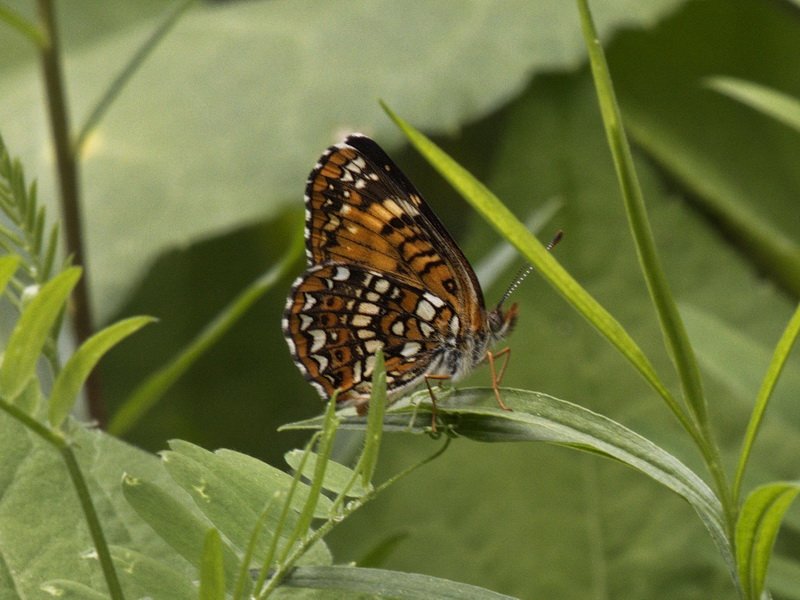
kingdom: Animalia
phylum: Arthropoda
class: Insecta
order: Lepidoptera
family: Nymphalidae
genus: Chlosyne
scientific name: Chlosyne harrisii
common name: Harris's Checkerspot
